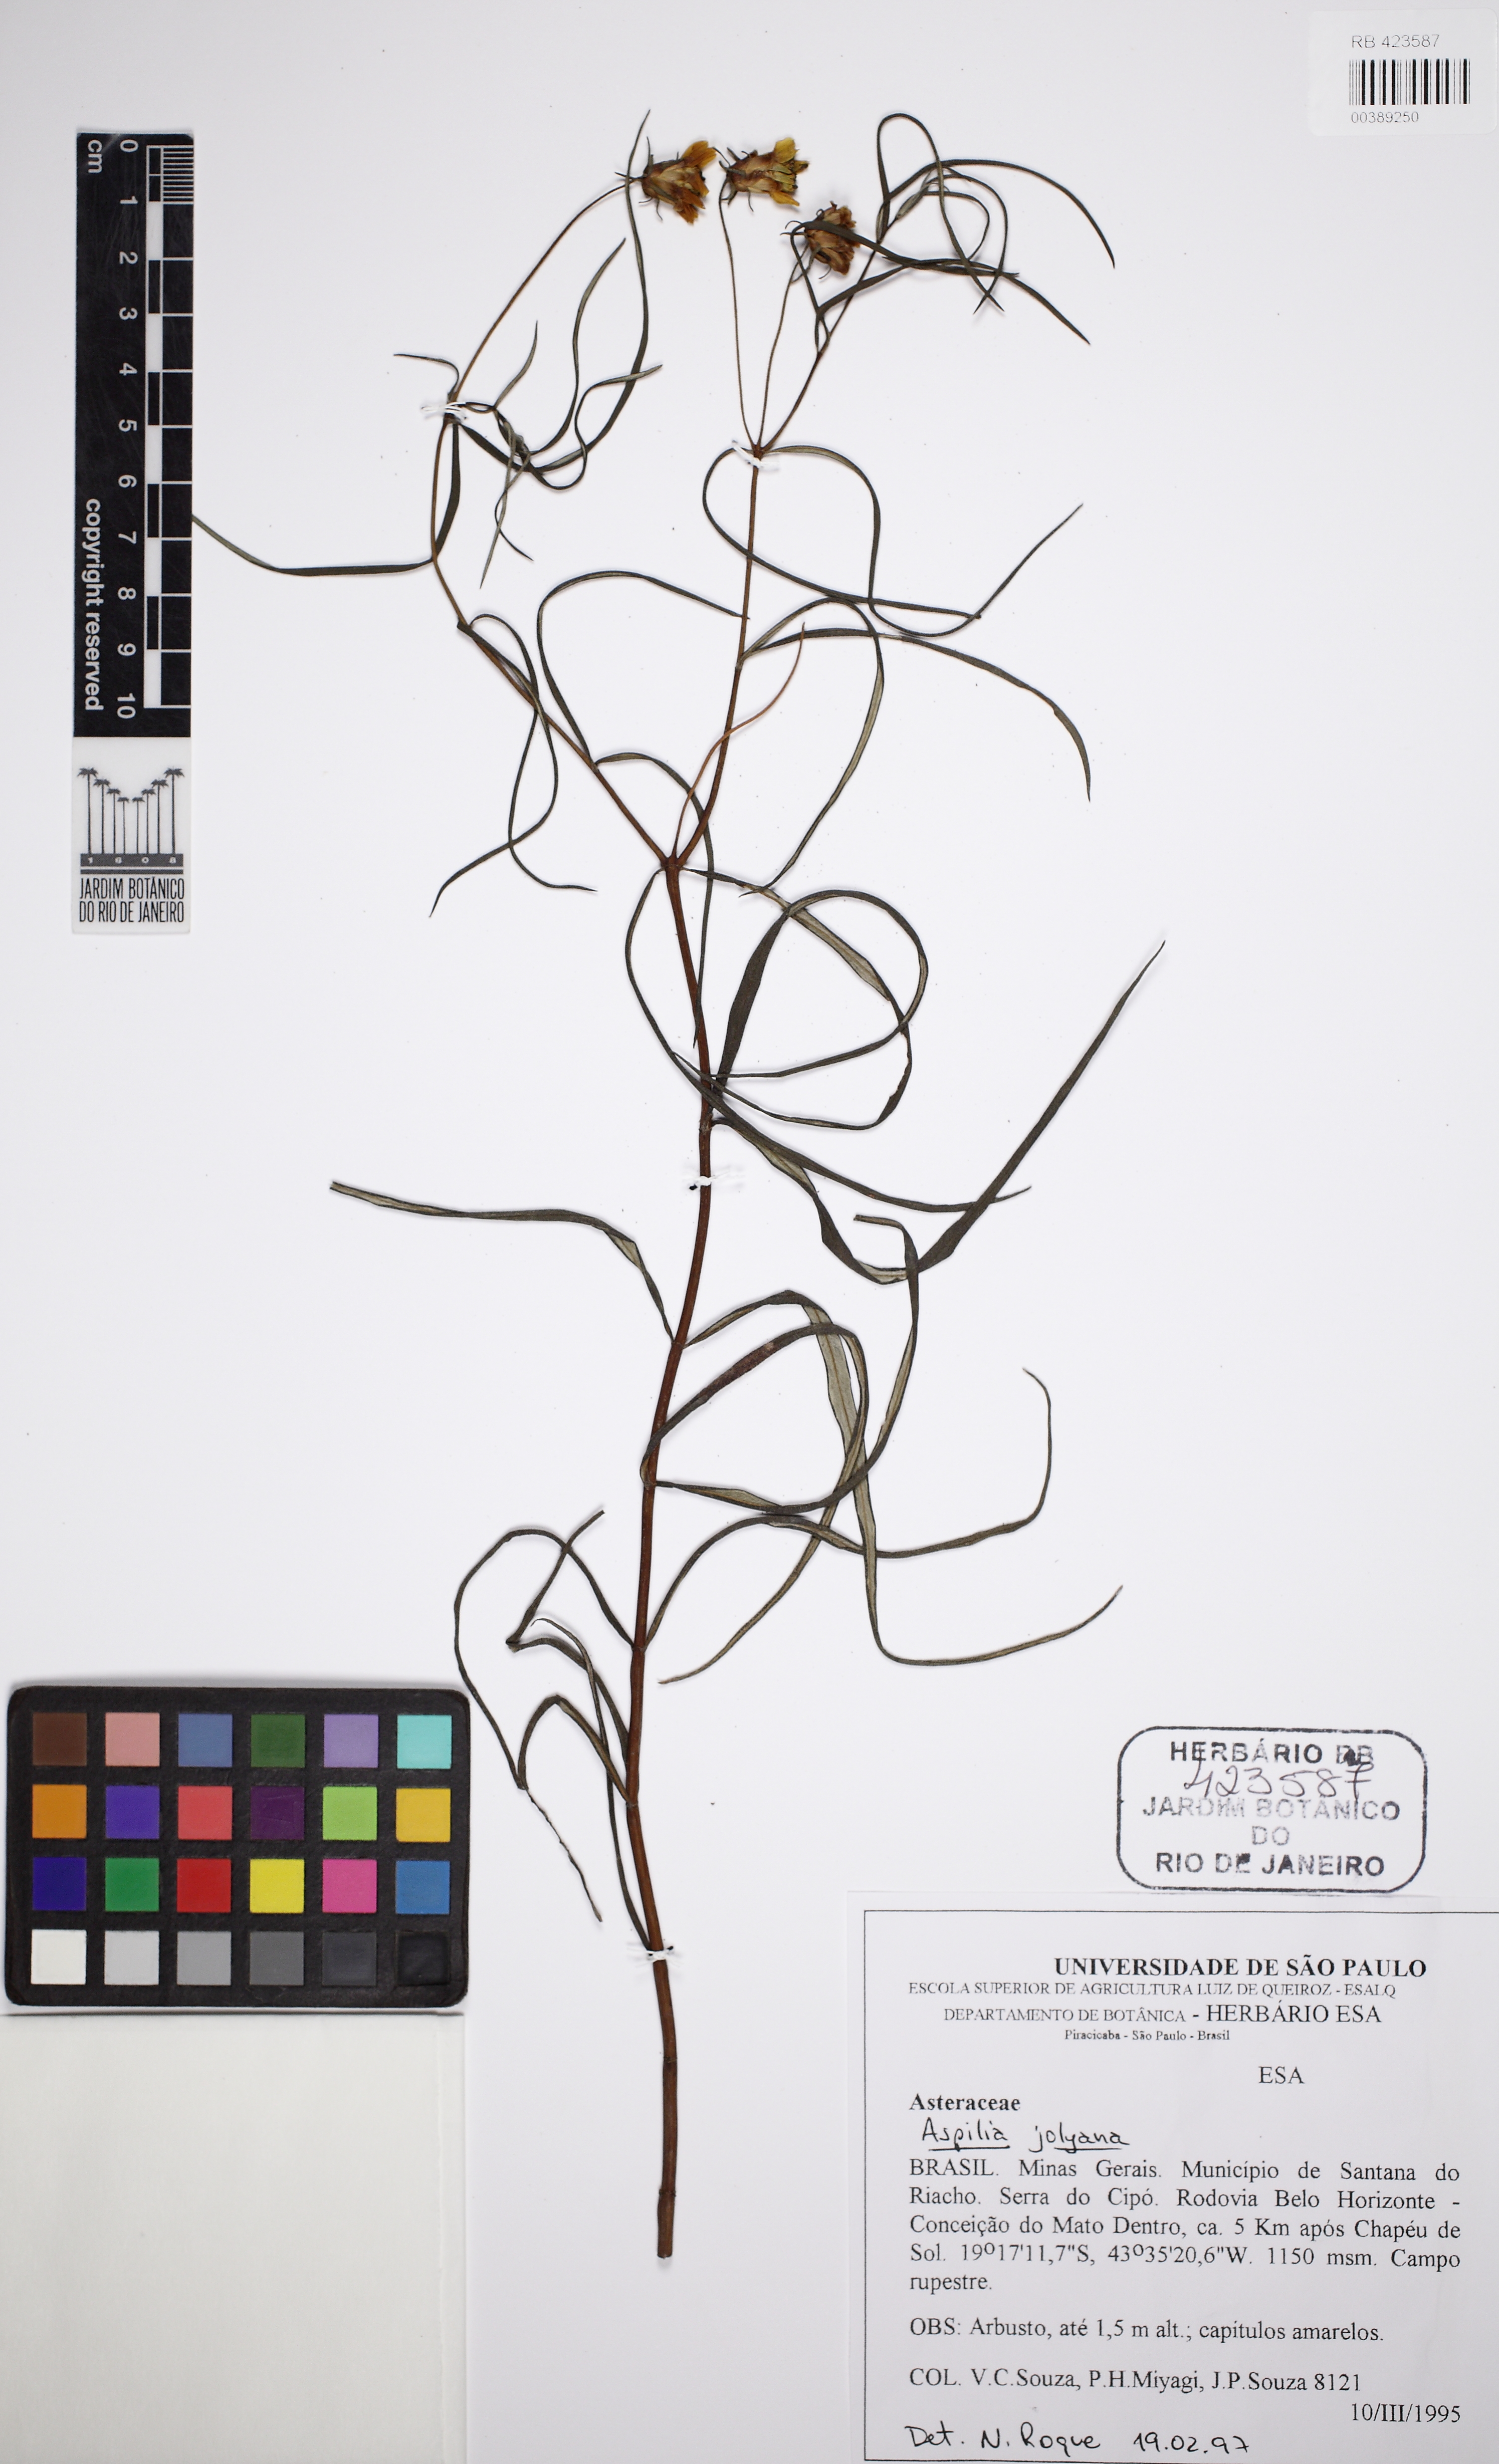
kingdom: Plantae
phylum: Tracheophyta
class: Magnoliopsida
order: Asterales
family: Asteraceae
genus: Aspilia
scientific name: Aspilia jolyana
